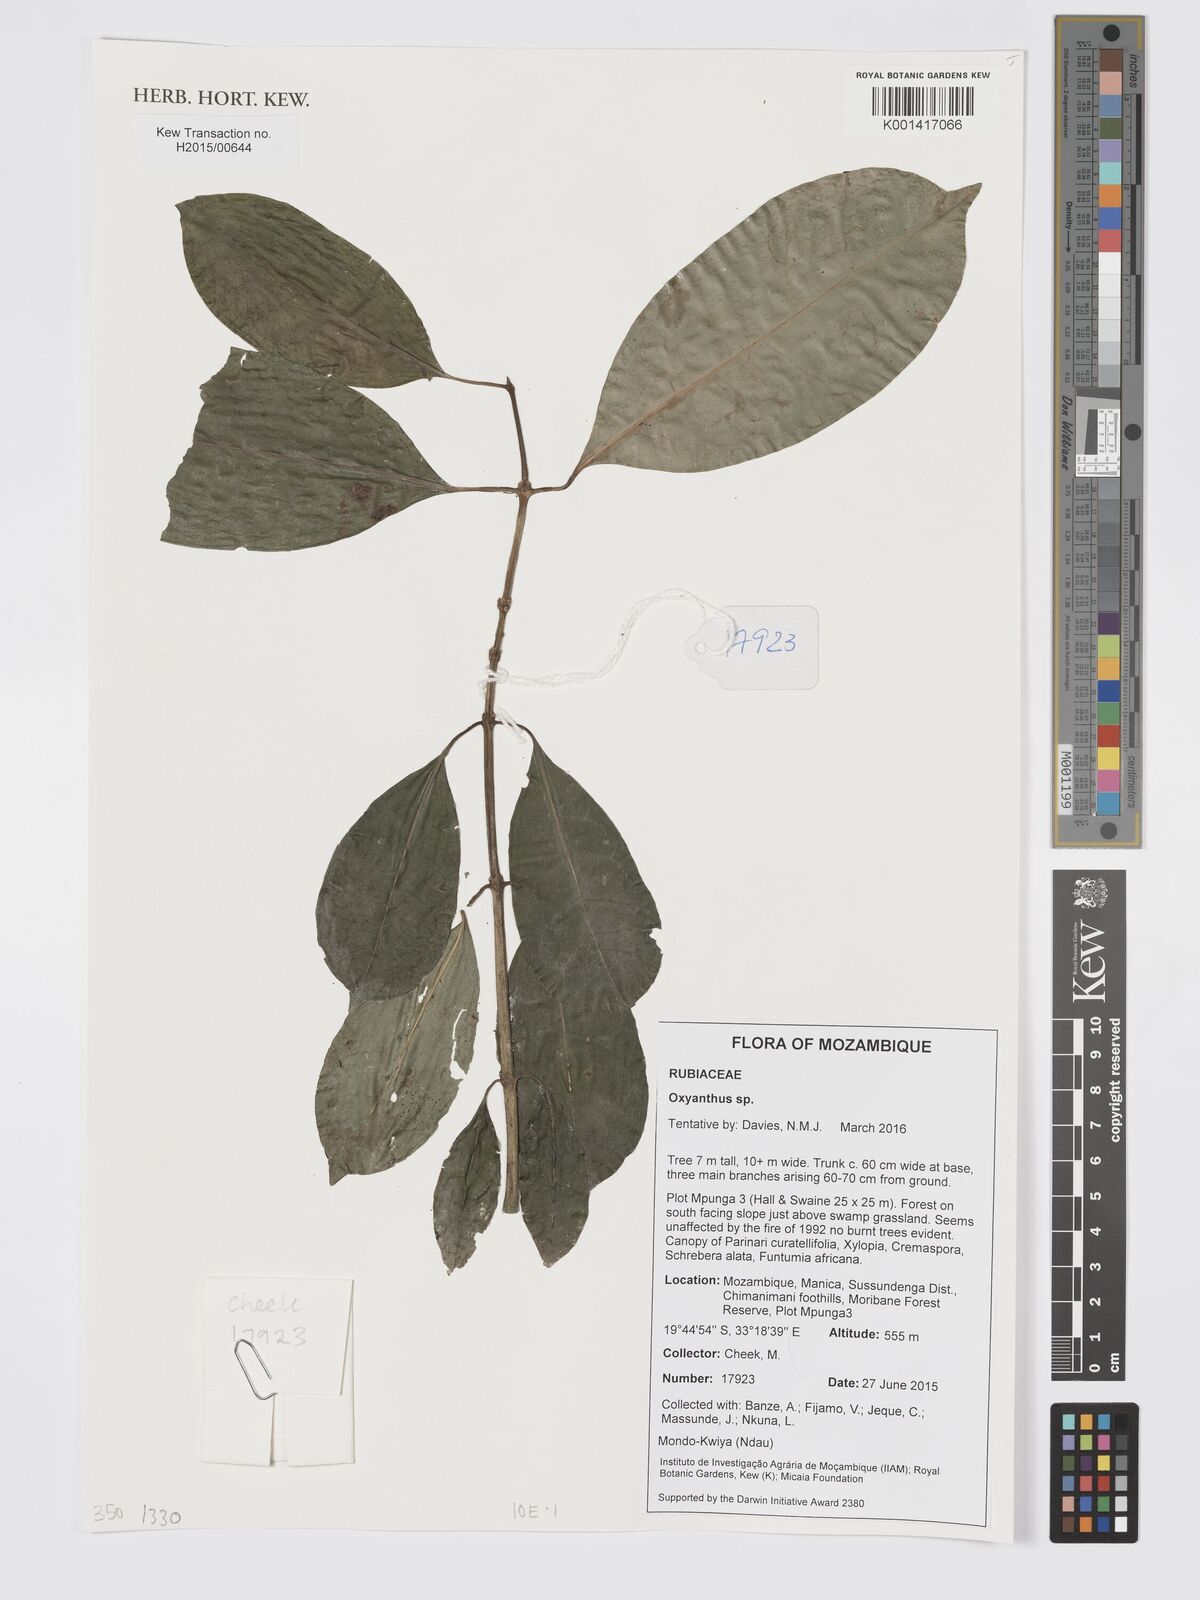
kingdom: Plantae
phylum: Tracheophyta
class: Magnoliopsida
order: Gentianales
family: Rubiaceae
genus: Oxyanthus
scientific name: Oxyanthus
